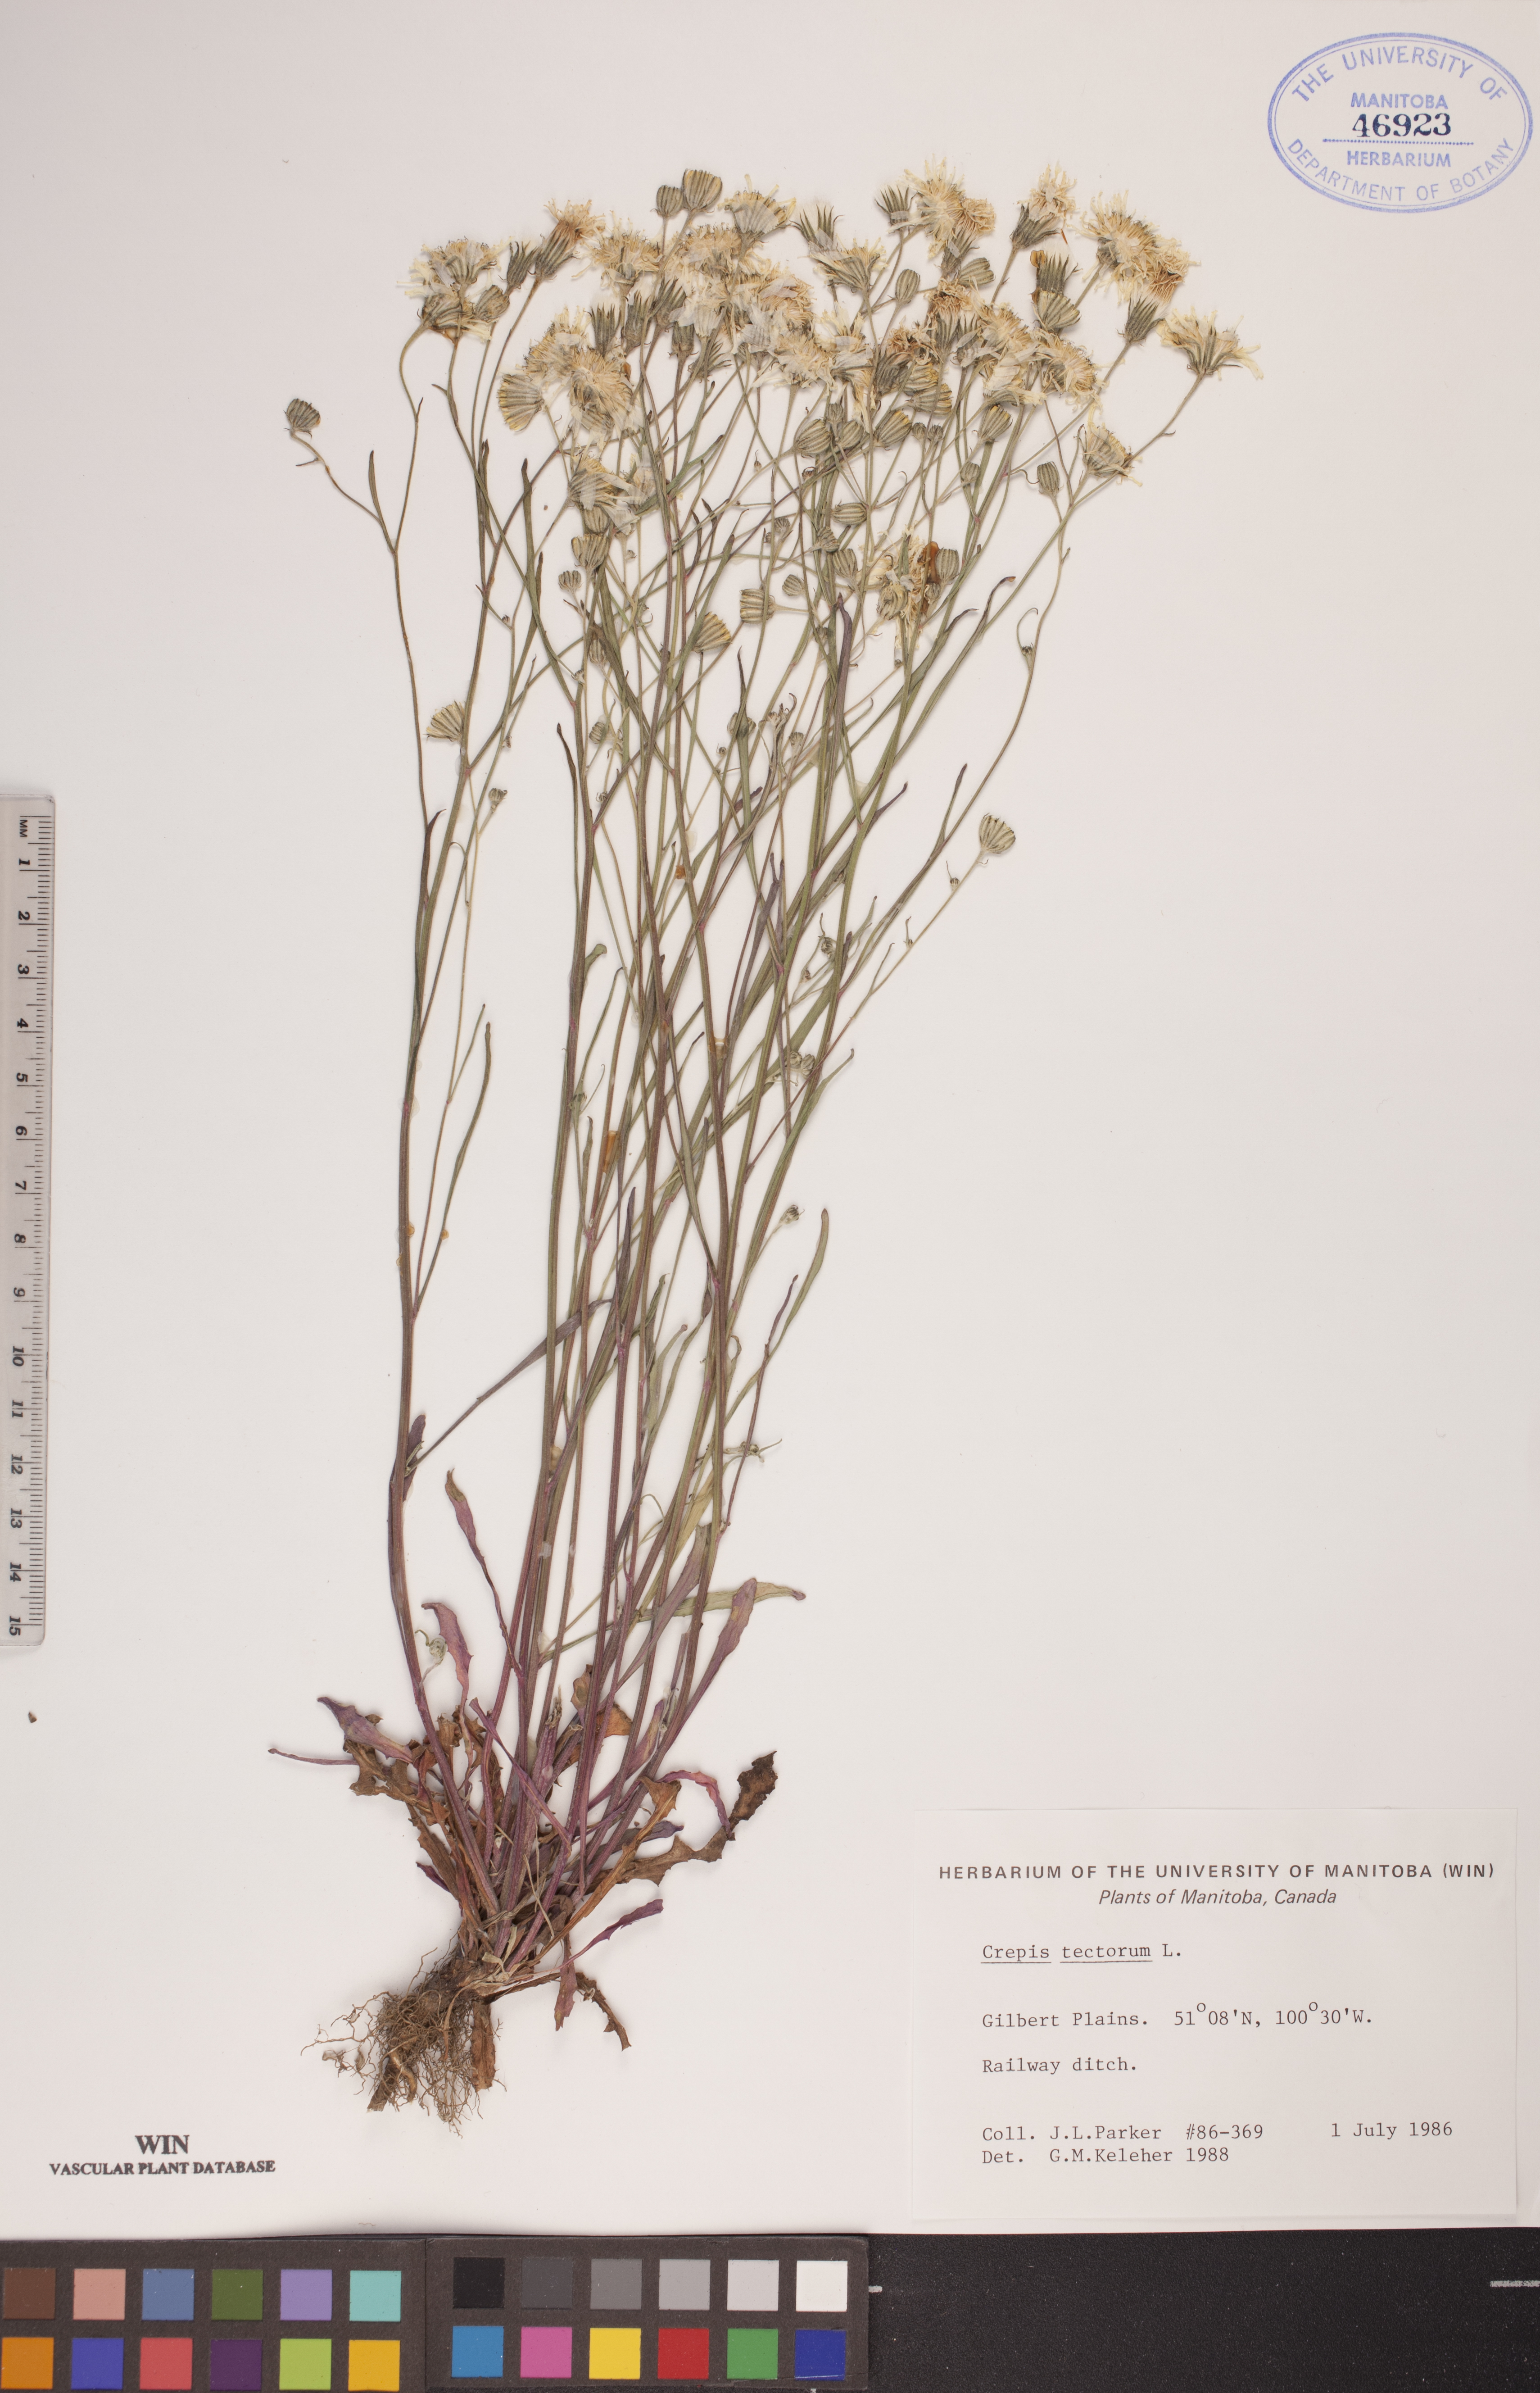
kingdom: Plantae
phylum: Tracheophyta
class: Magnoliopsida
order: Asterales
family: Asteraceae
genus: Crepis
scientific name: Crepis tectorum
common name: Narrow-leaved hawk's-beard
